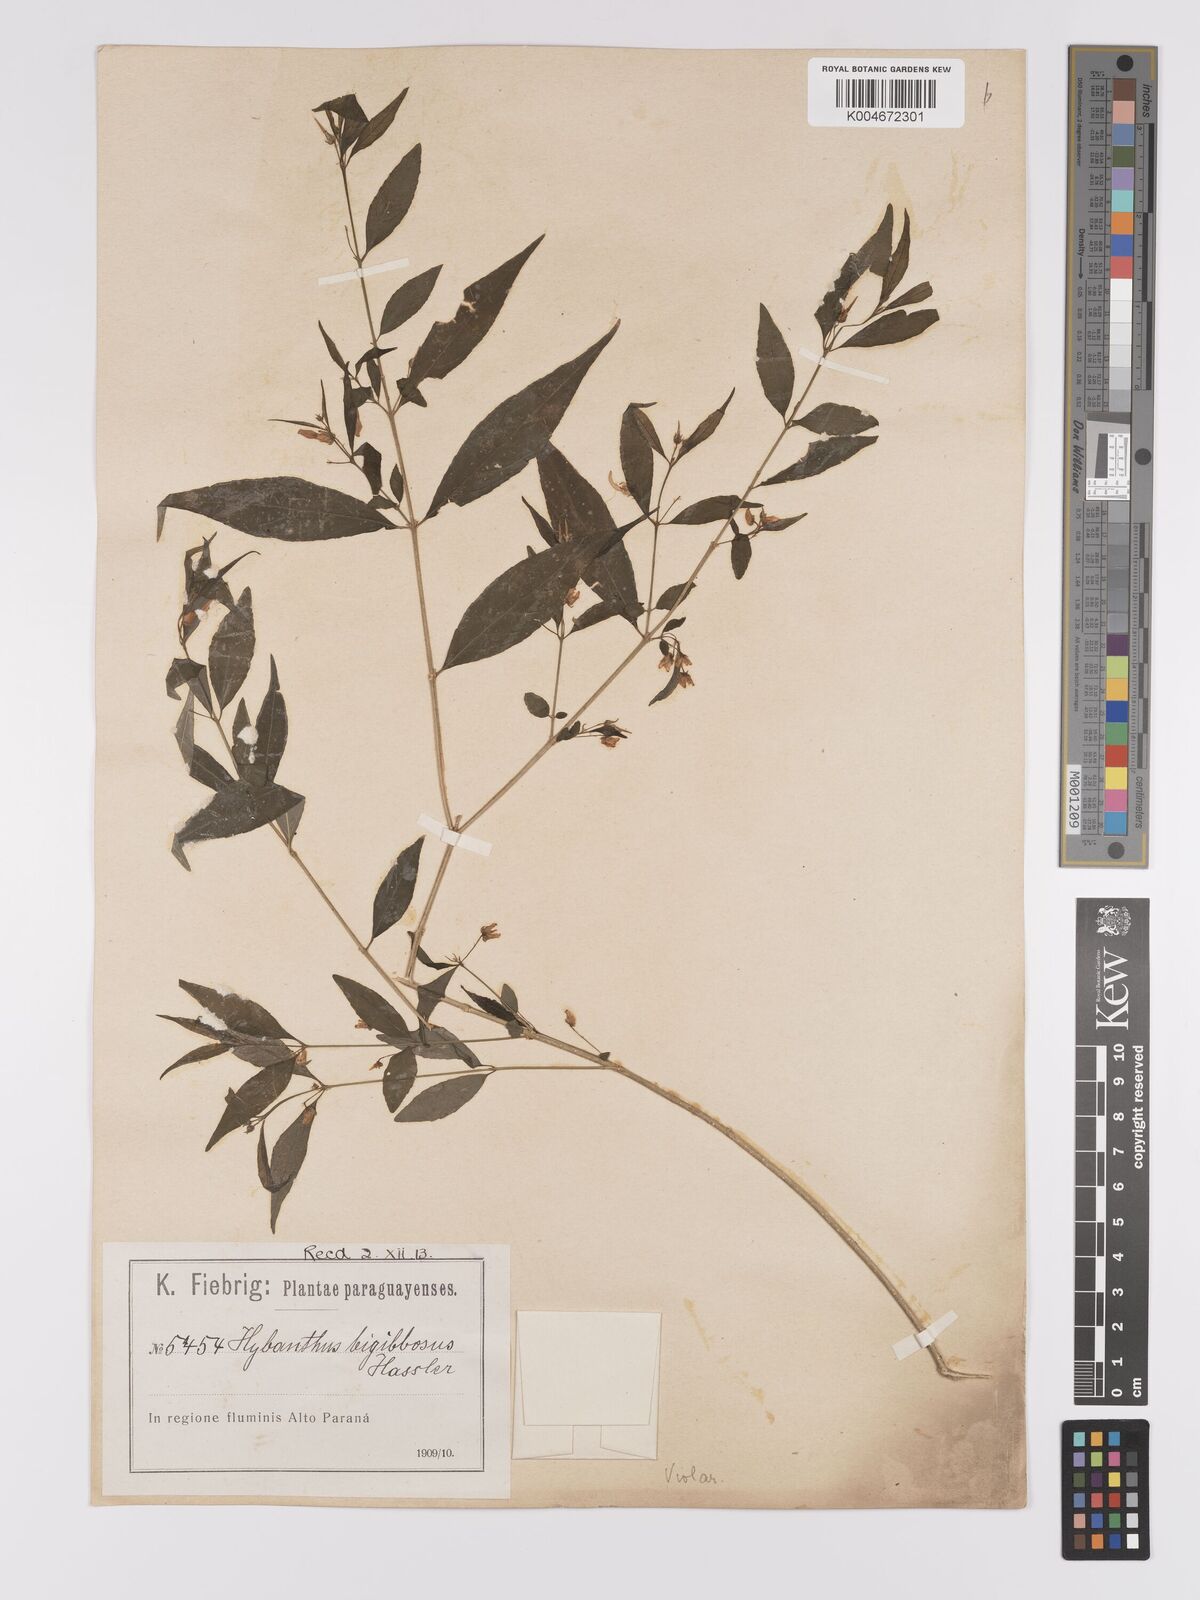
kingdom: Plantae
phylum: Tracheophyta
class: Magnoliopsida
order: Malpighiales
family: Violaceae
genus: Pombalia
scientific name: Pombalia bigibbosa
